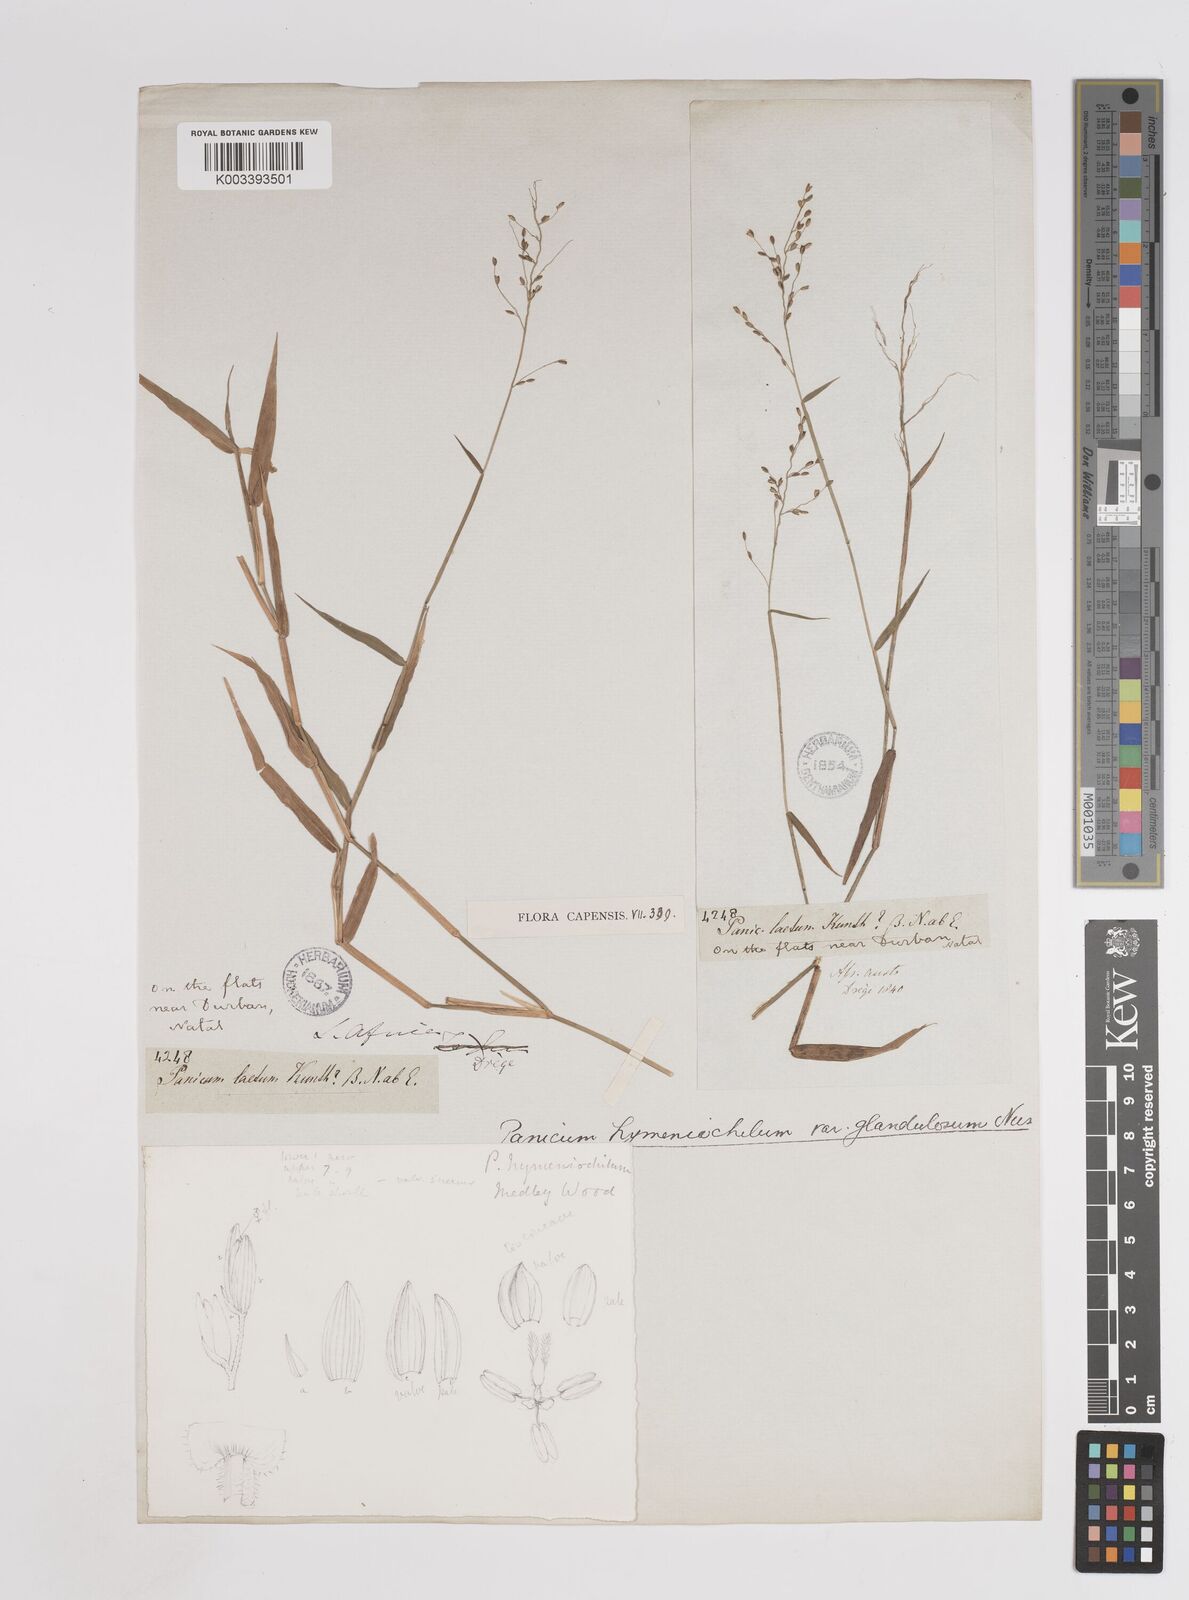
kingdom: Plantae
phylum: Tracheophyta
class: Liliopsida
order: Poales
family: Poaceae
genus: Adenochloa
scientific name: Adenochloa hymeniochila
